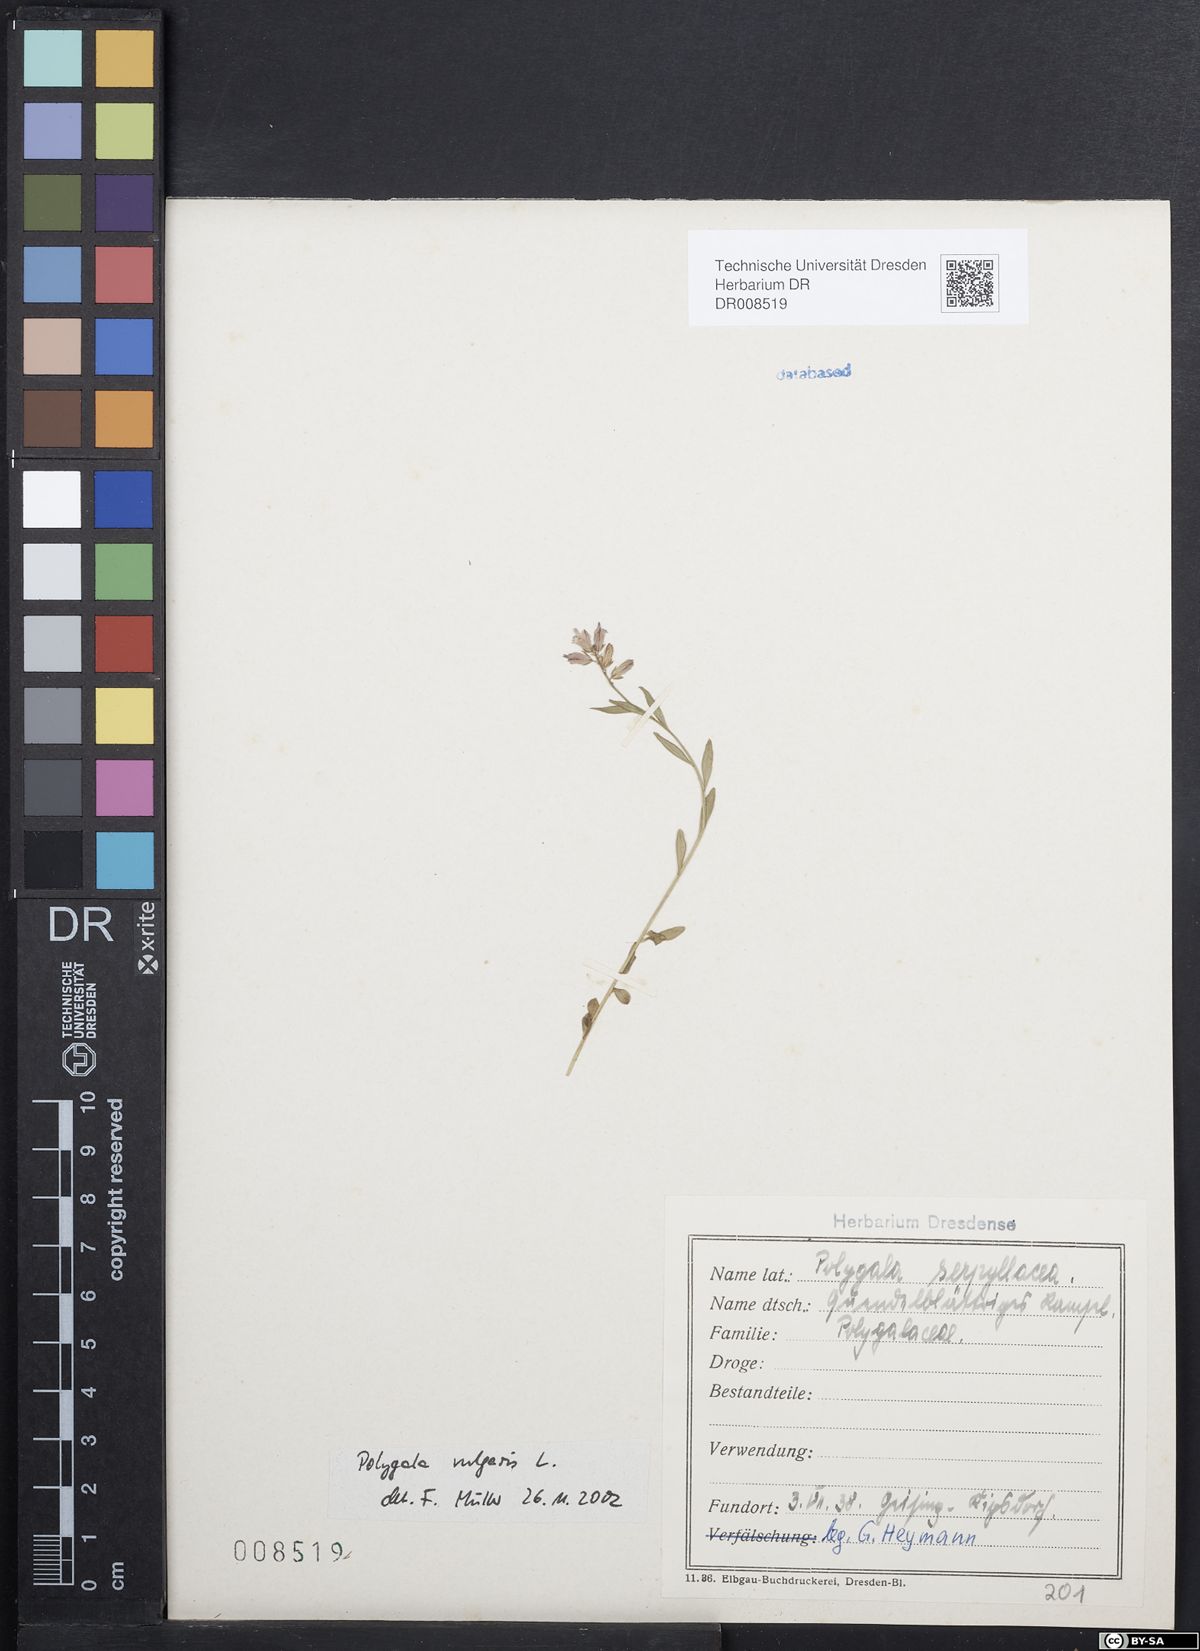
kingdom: Plantae
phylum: Tracheophyta
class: Magnoliopsida
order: Fabales
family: Polygalaceae
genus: Polygala
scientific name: Polygala vulgaris
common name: Common milkwort
